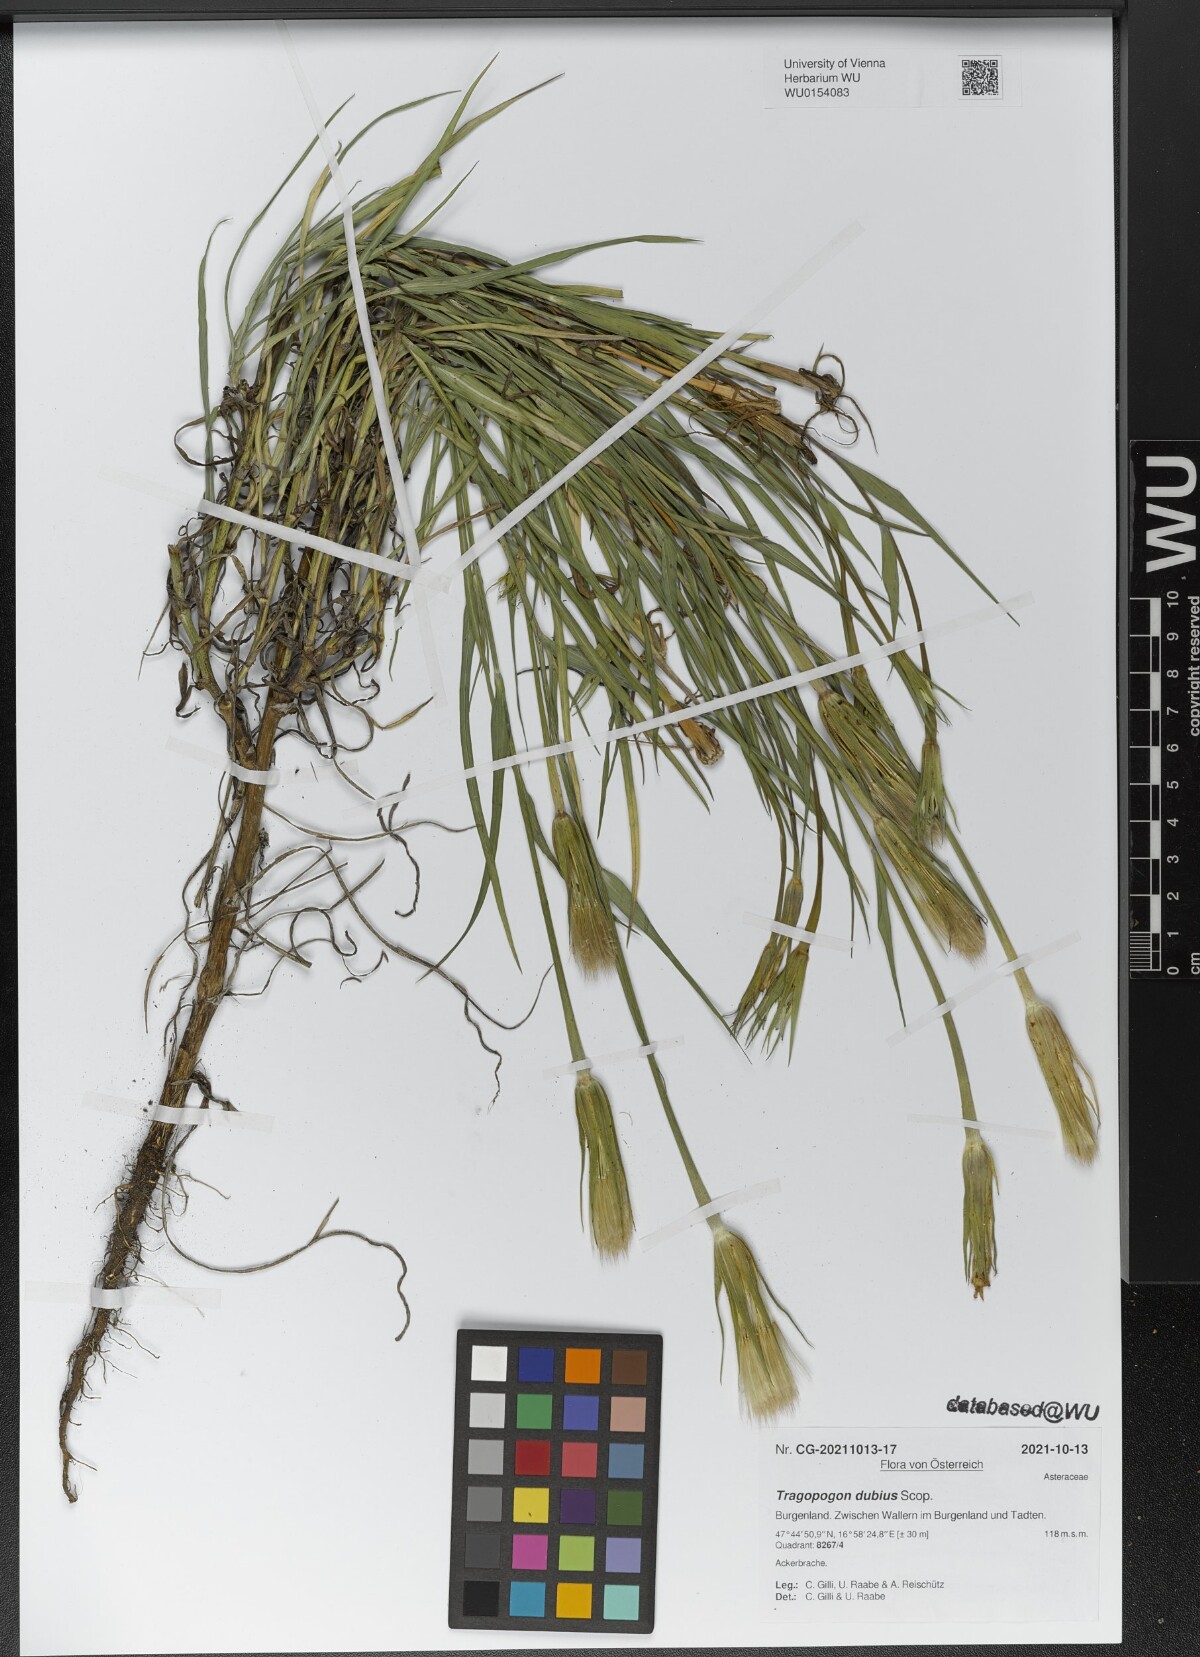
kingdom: Plantae
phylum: Tracheophyta
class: Magnoliopsida
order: Asterales
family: Asteraceae
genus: Tragopogon
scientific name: Tragopogon dubius
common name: Yellow salsify
